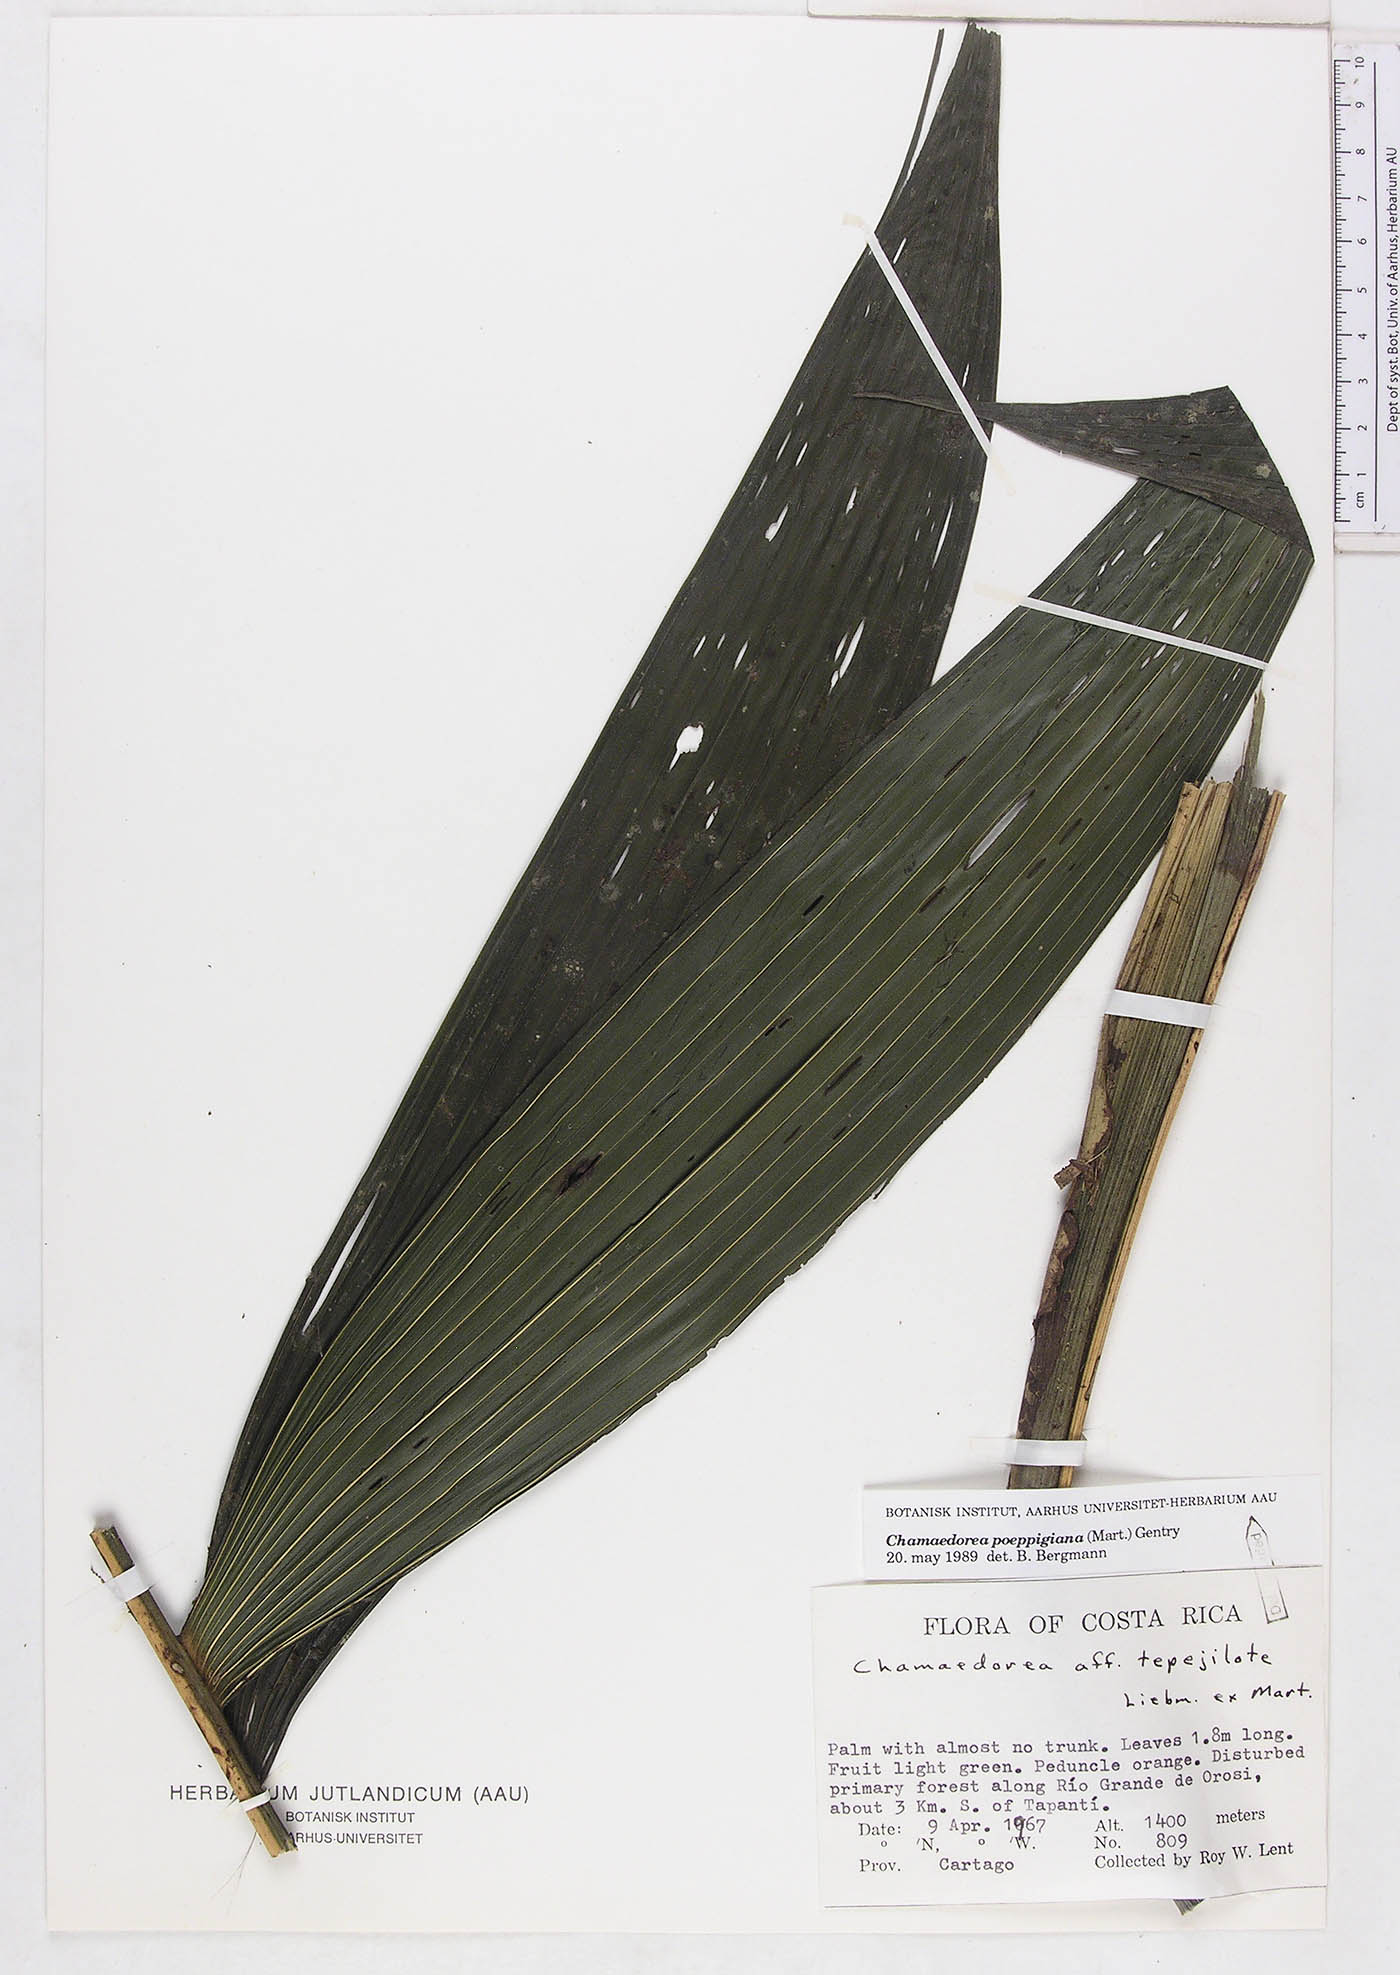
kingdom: Plantae
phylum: Tracheophyta
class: Liliopsida
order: Arecales
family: Arecaceae
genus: Chamaedorea
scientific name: Chamaedorea linearis
